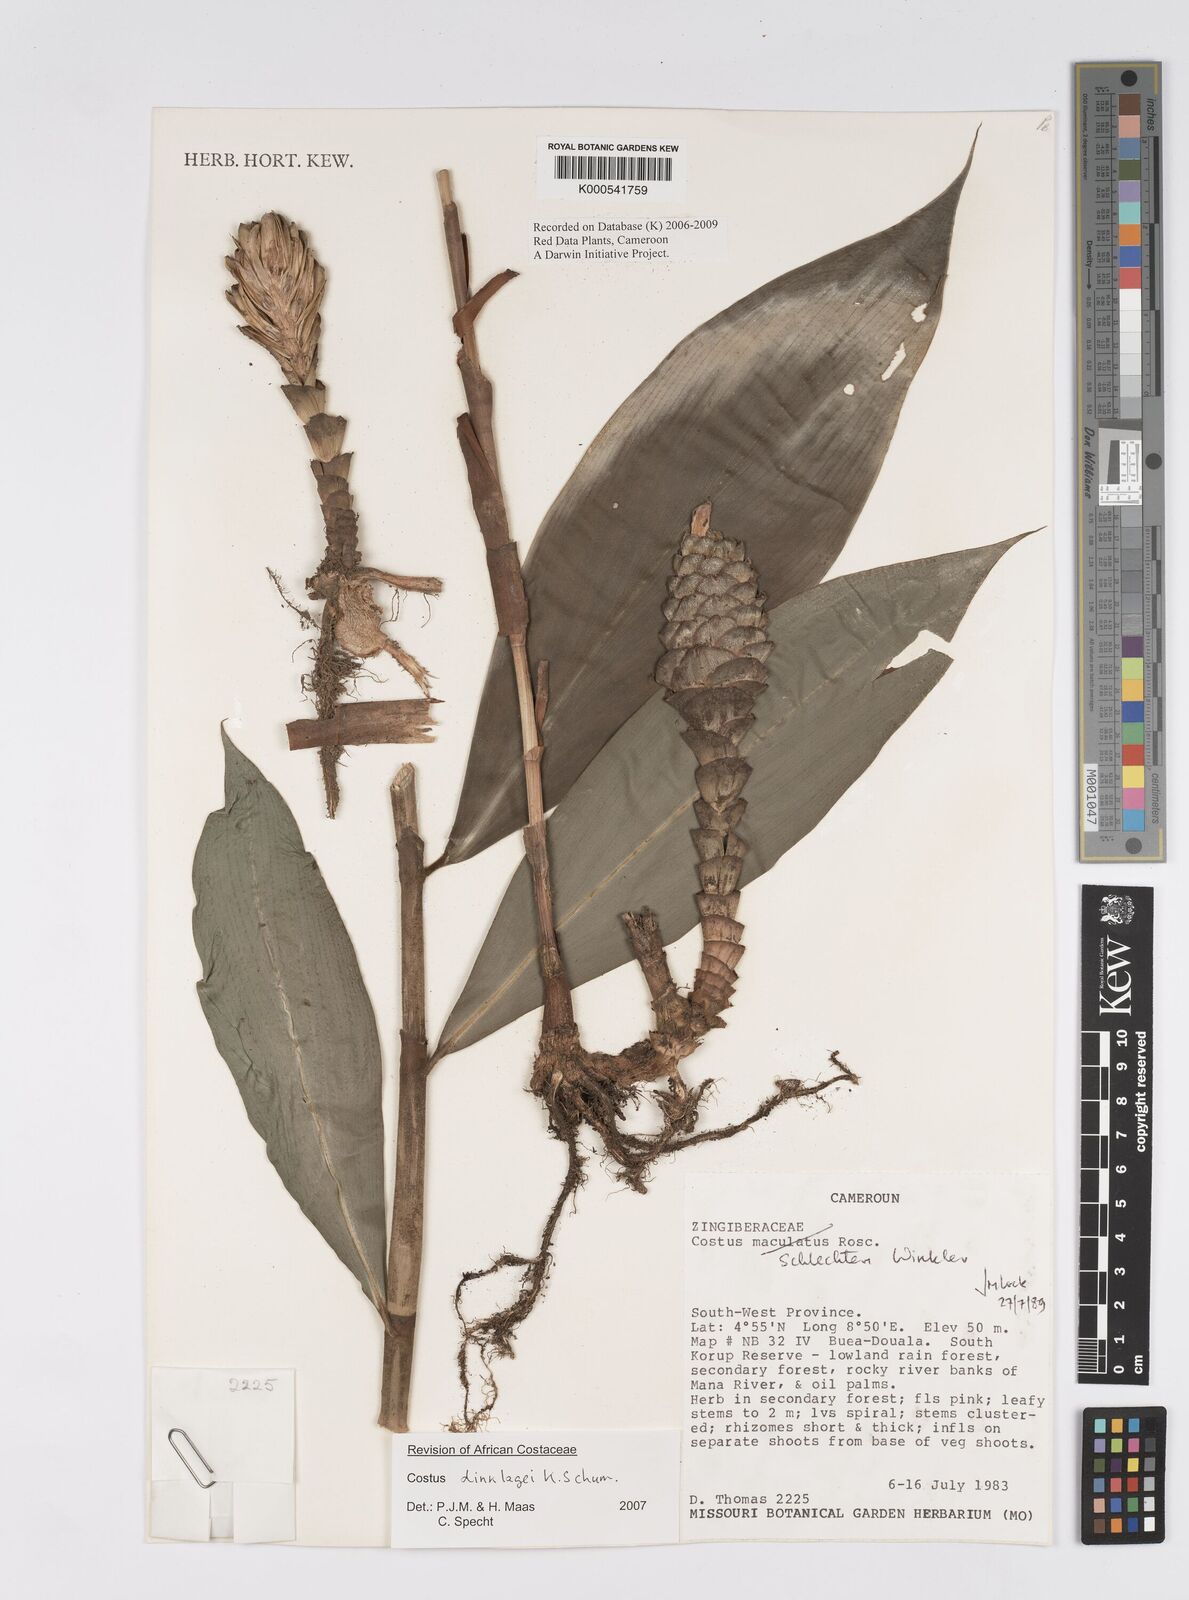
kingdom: Plantae
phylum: Tracheophyta
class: Liliopsida
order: Zingiberales
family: Costaceae
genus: Costus
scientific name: Costus dinklagei
